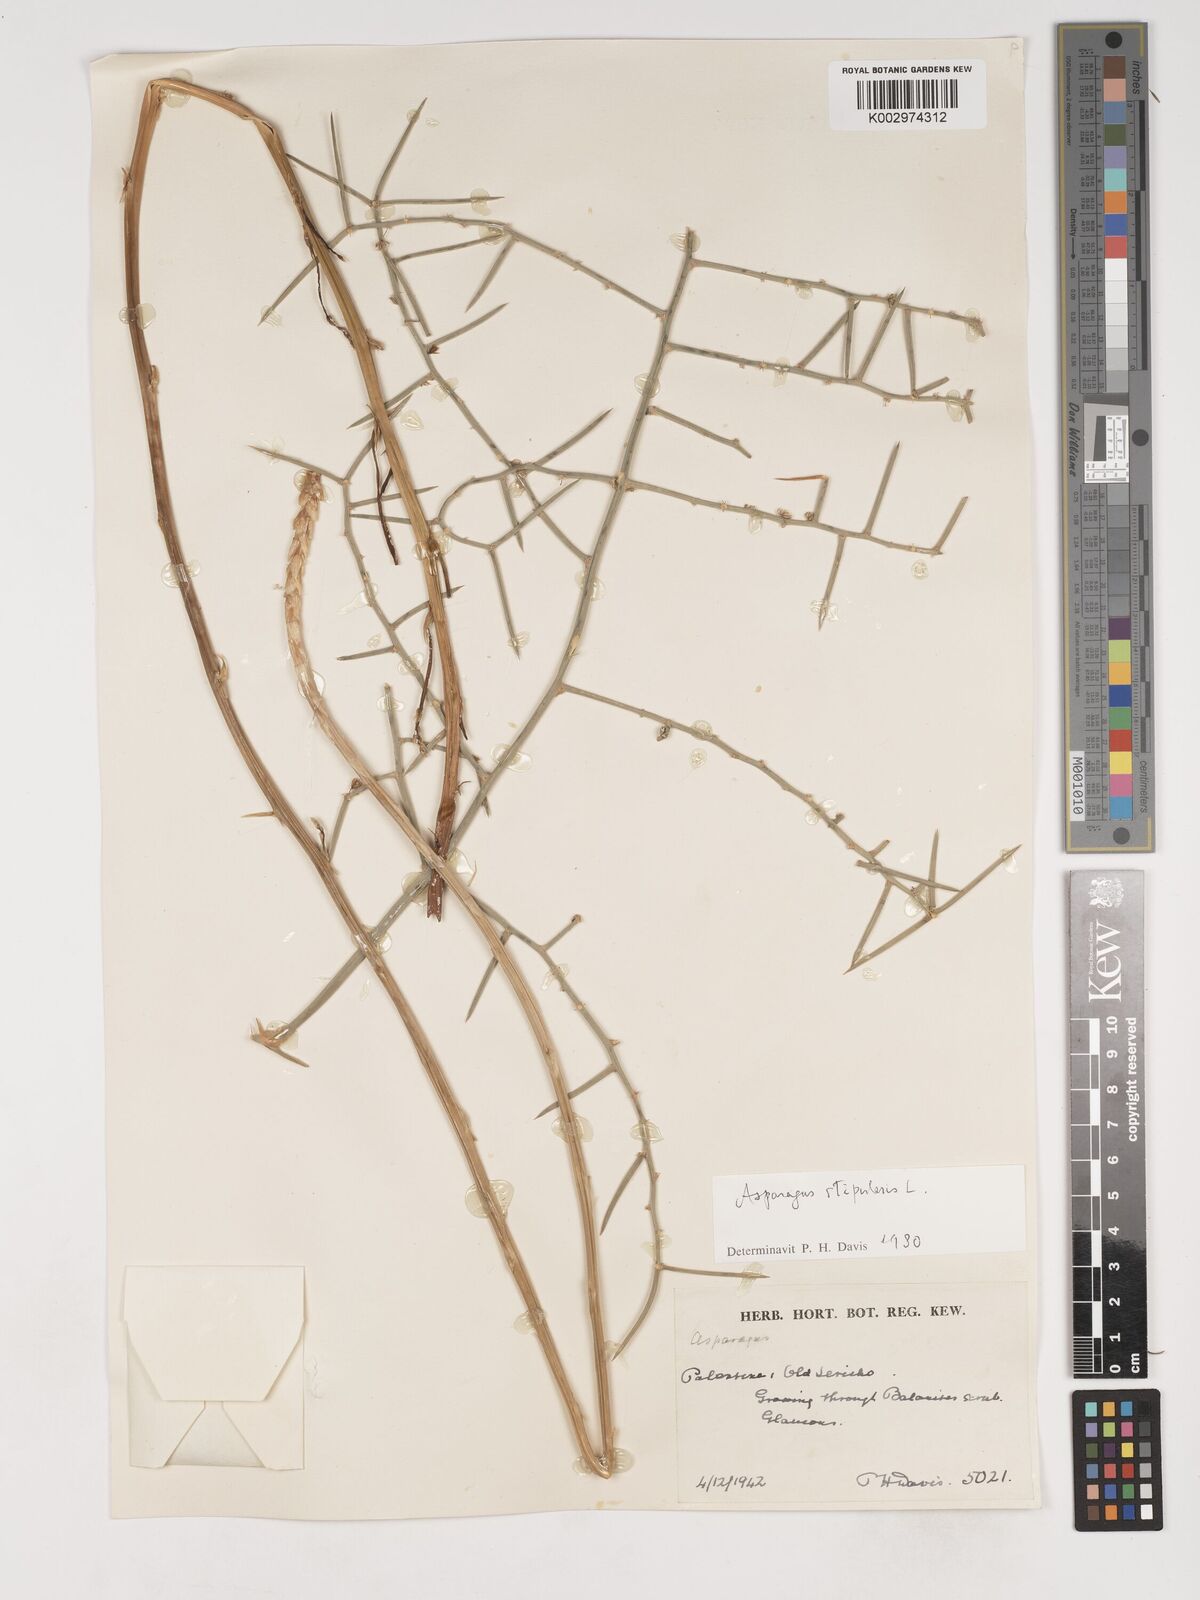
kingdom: Plantae
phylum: Tracheophyta
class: Liliopsida
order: Asparagales
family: Asparagaceae
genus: Asparagus
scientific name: Asparagus horridus
